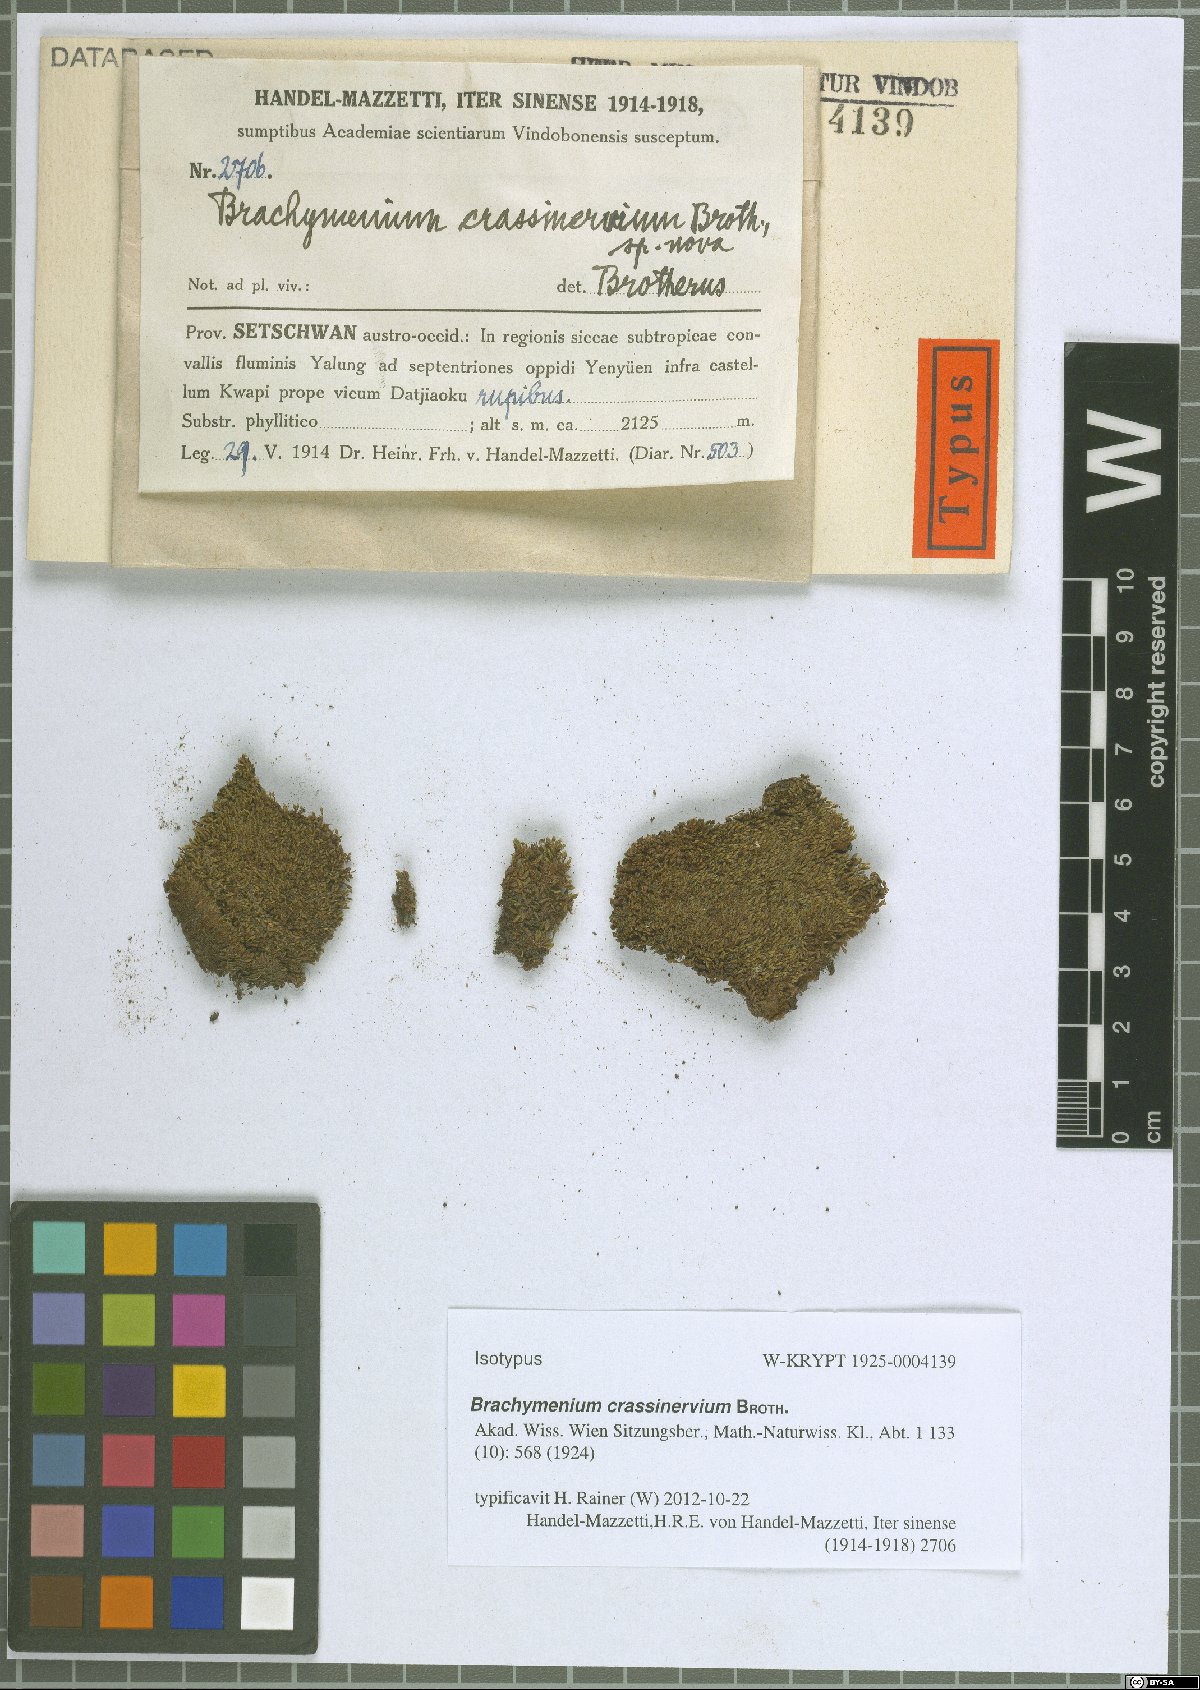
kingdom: Plantae
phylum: Bryophyta
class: Bryopsida
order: Bryales
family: Bryaceae
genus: Leptostomopsis
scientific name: Leptostomopsis systylia
